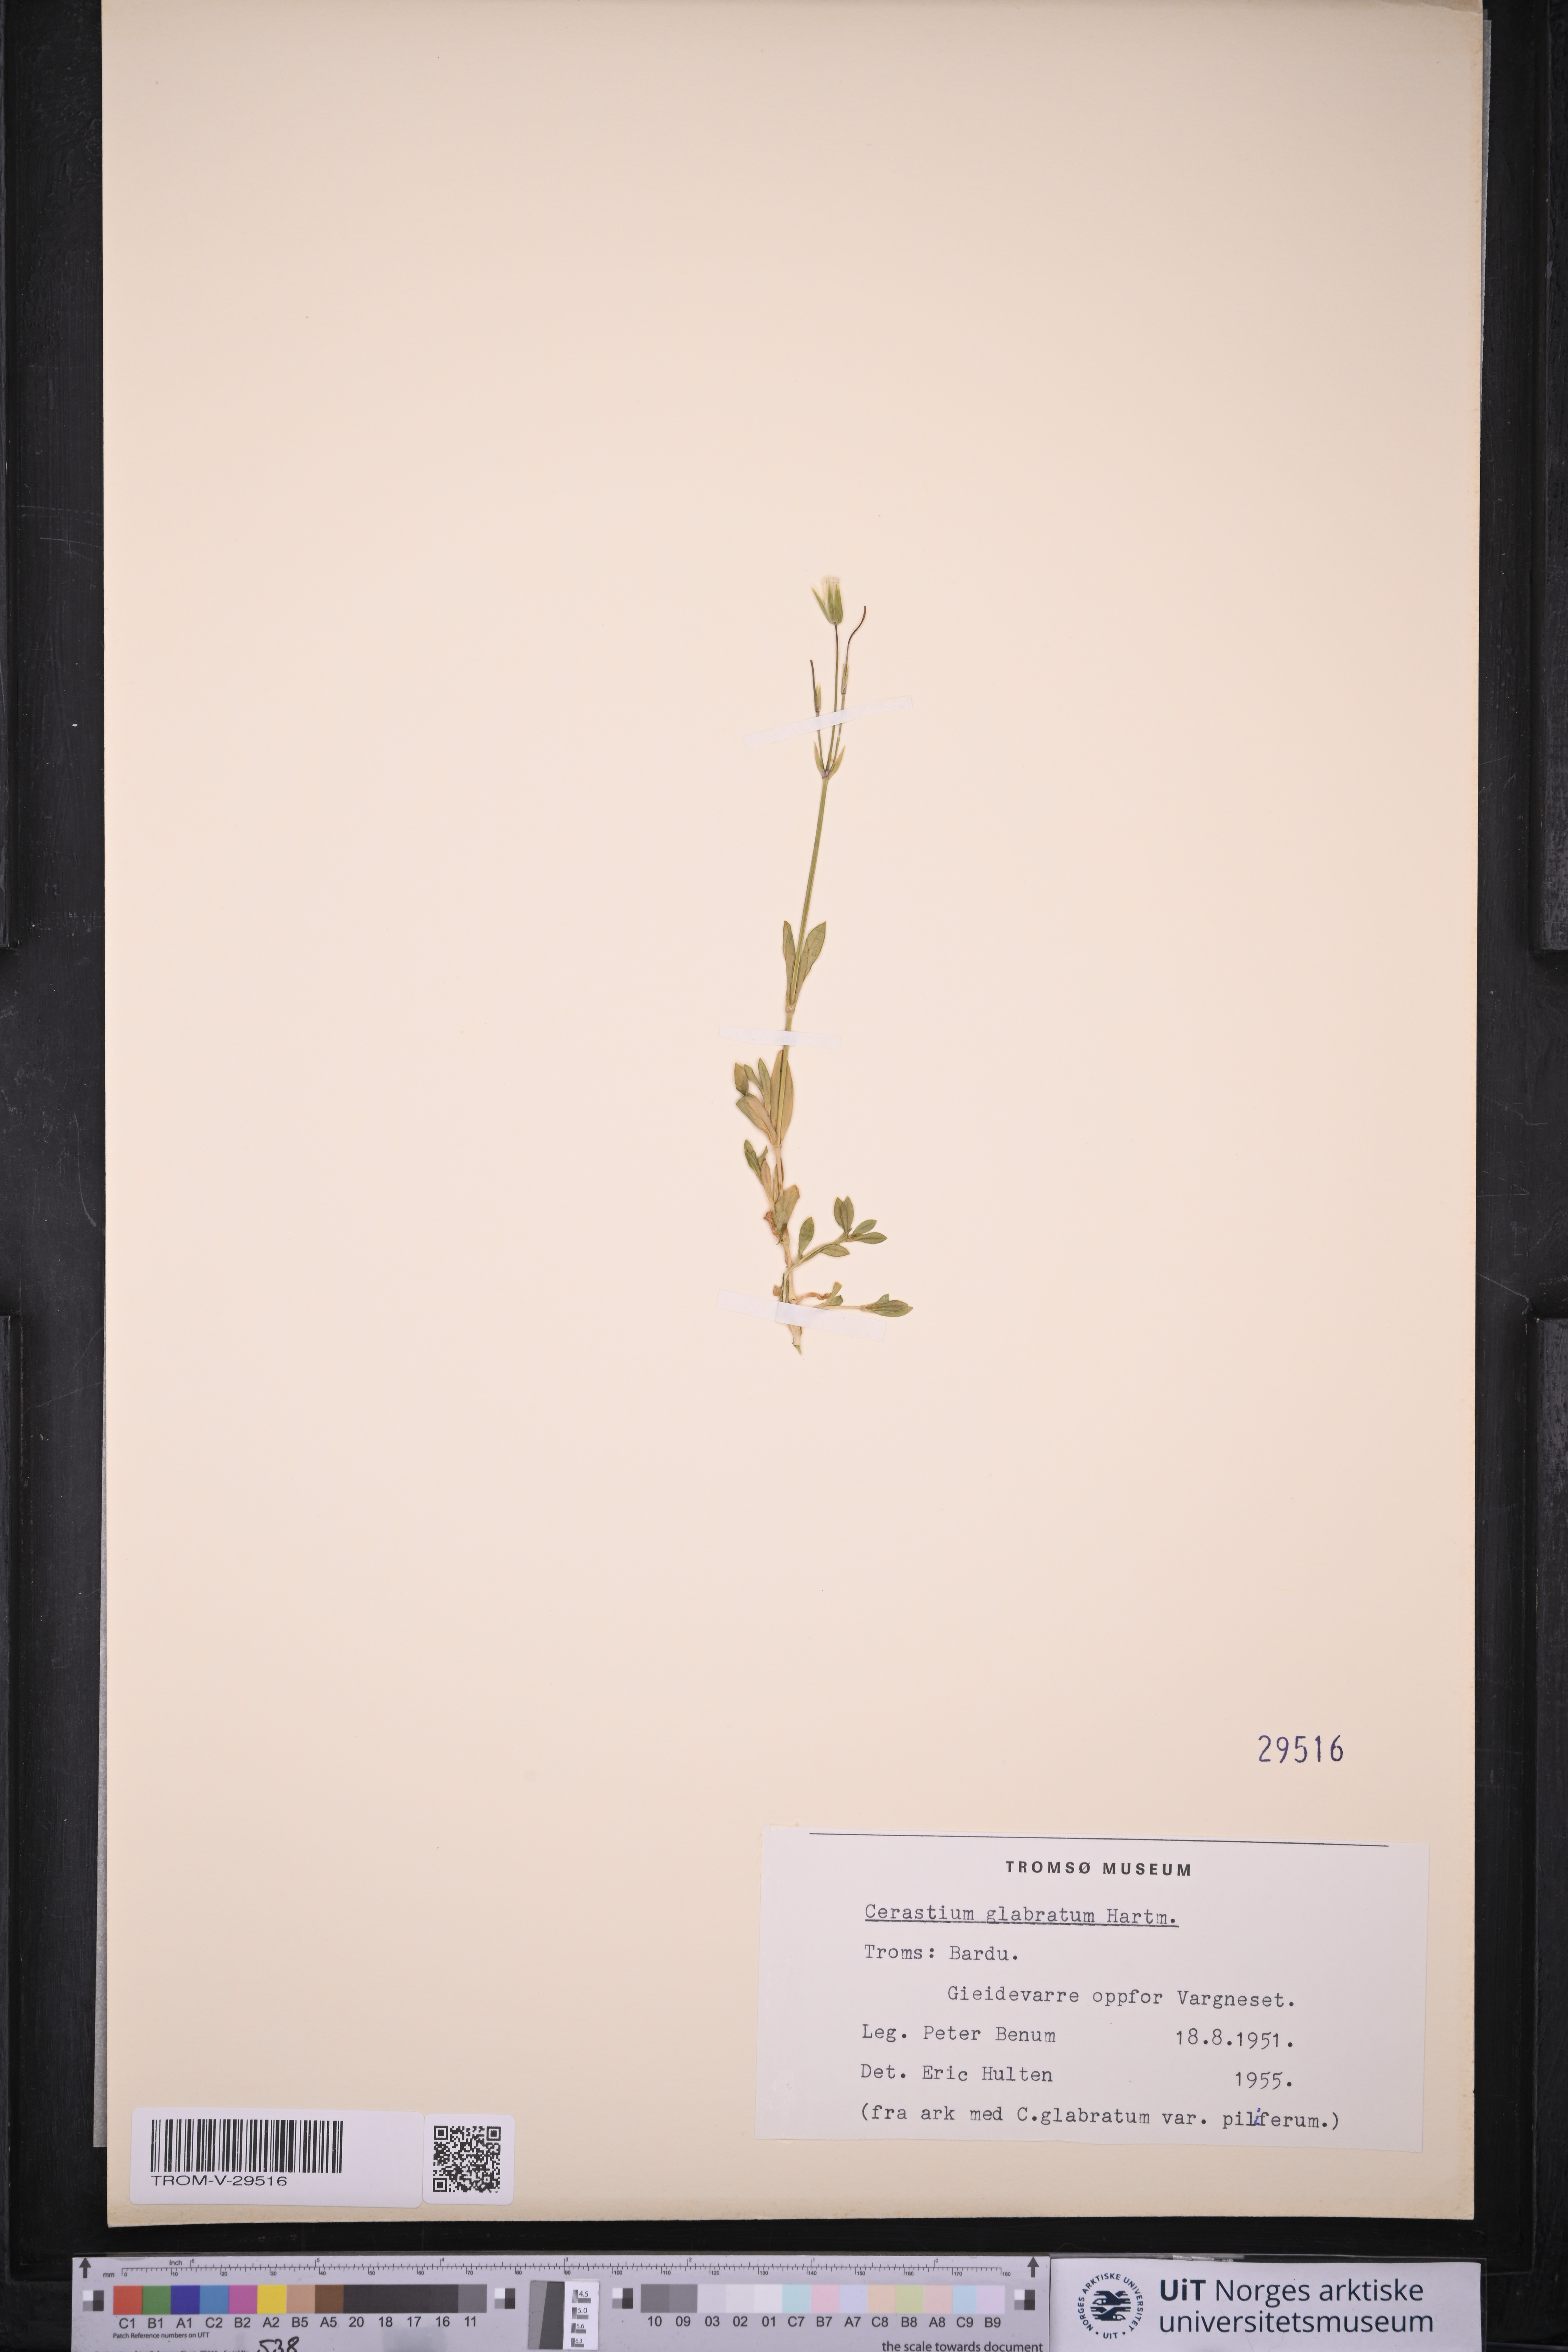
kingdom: Plantae
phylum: Tracheophyta
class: Magnoliopsida
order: Caryophyllales
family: Caryophyllaceae
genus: Cerastium
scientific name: Cerastium alpinum
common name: Alpine mouse-ear
